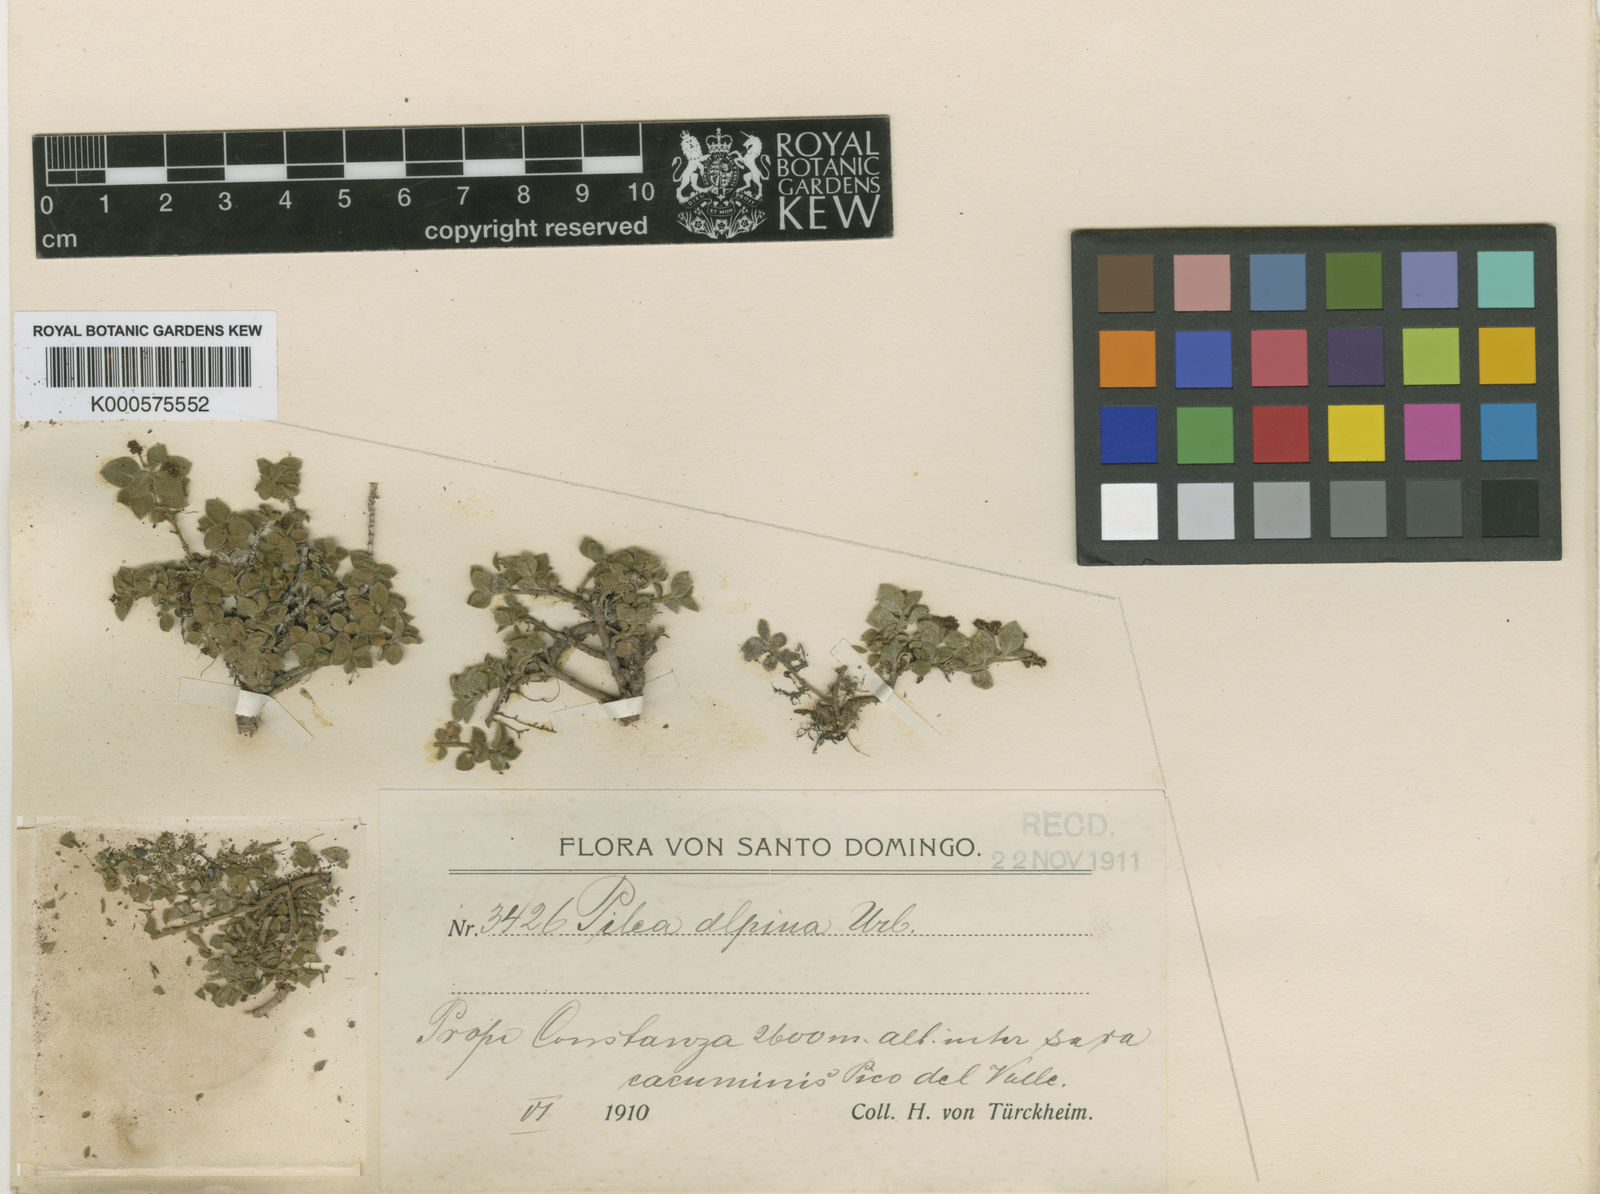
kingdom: Plantae
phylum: Tracheophyta
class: Magnoliopsida
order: Rosales
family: Urticaceae
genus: Pilea
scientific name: Pilea alpina
